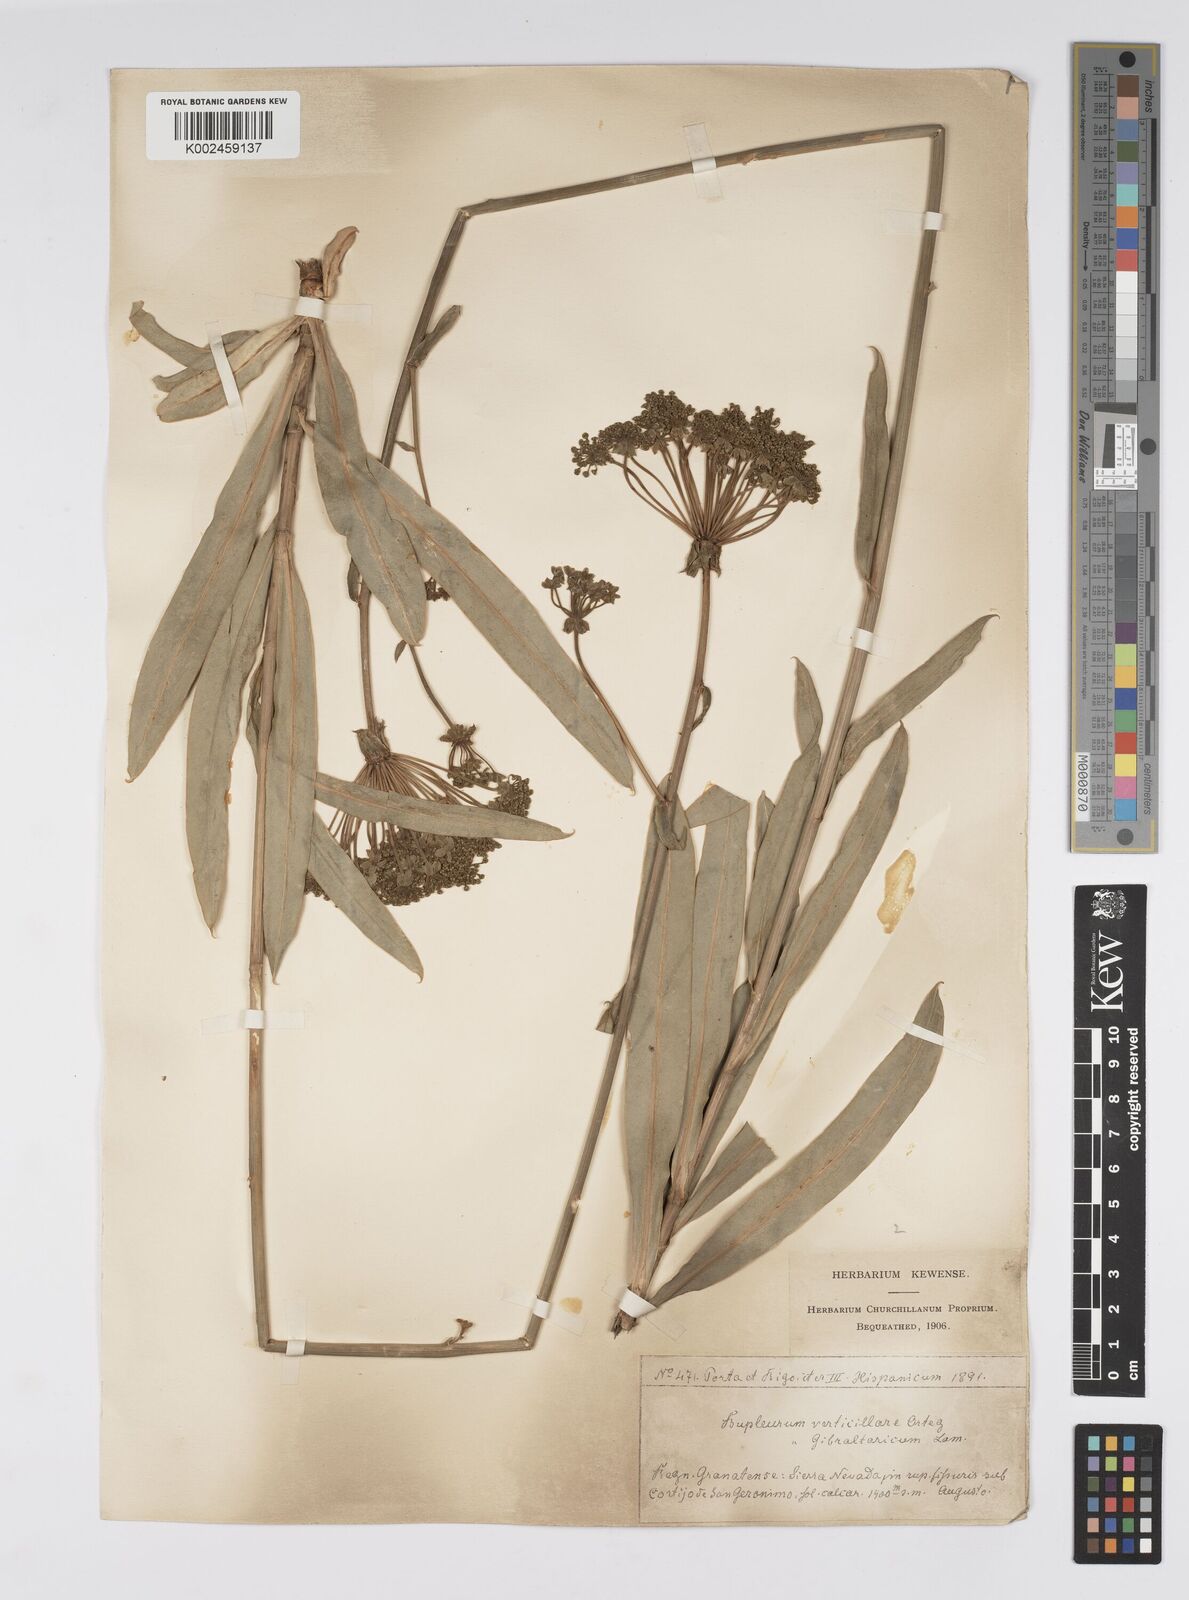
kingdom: Plantae
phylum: Tracheophyta
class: Magnoliopsida
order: Apiales
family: Apiaceae
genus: Bupleurum
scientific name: Bupleurum gibraltaricum
